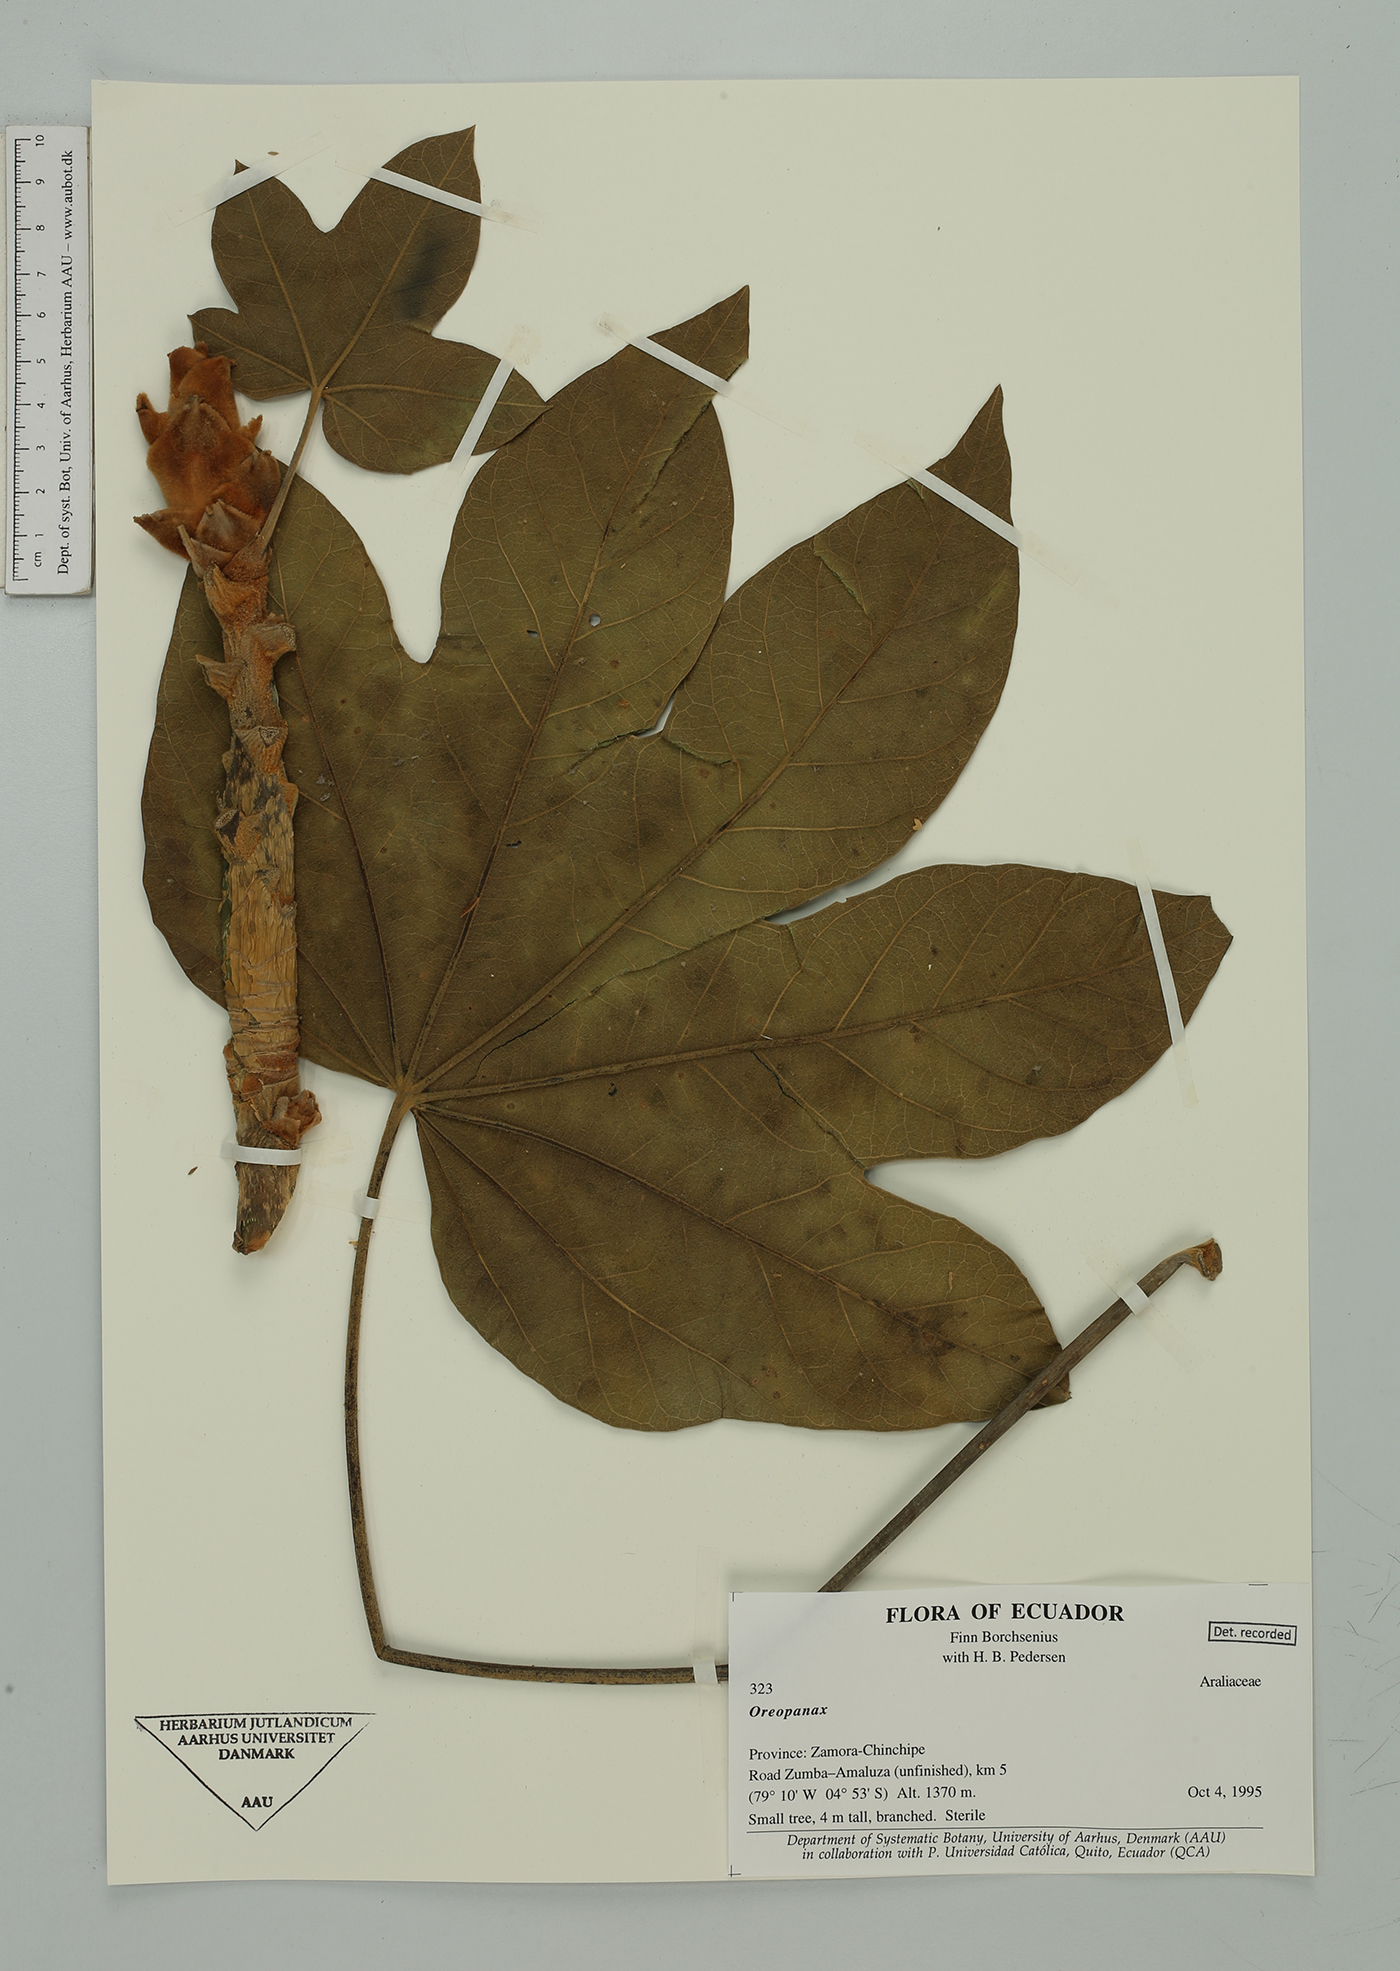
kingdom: Plantae
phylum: Tracheophyta
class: Magnoliopsida
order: Apiales
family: Araliaceae
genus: Oreopanax
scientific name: Oreopanax
